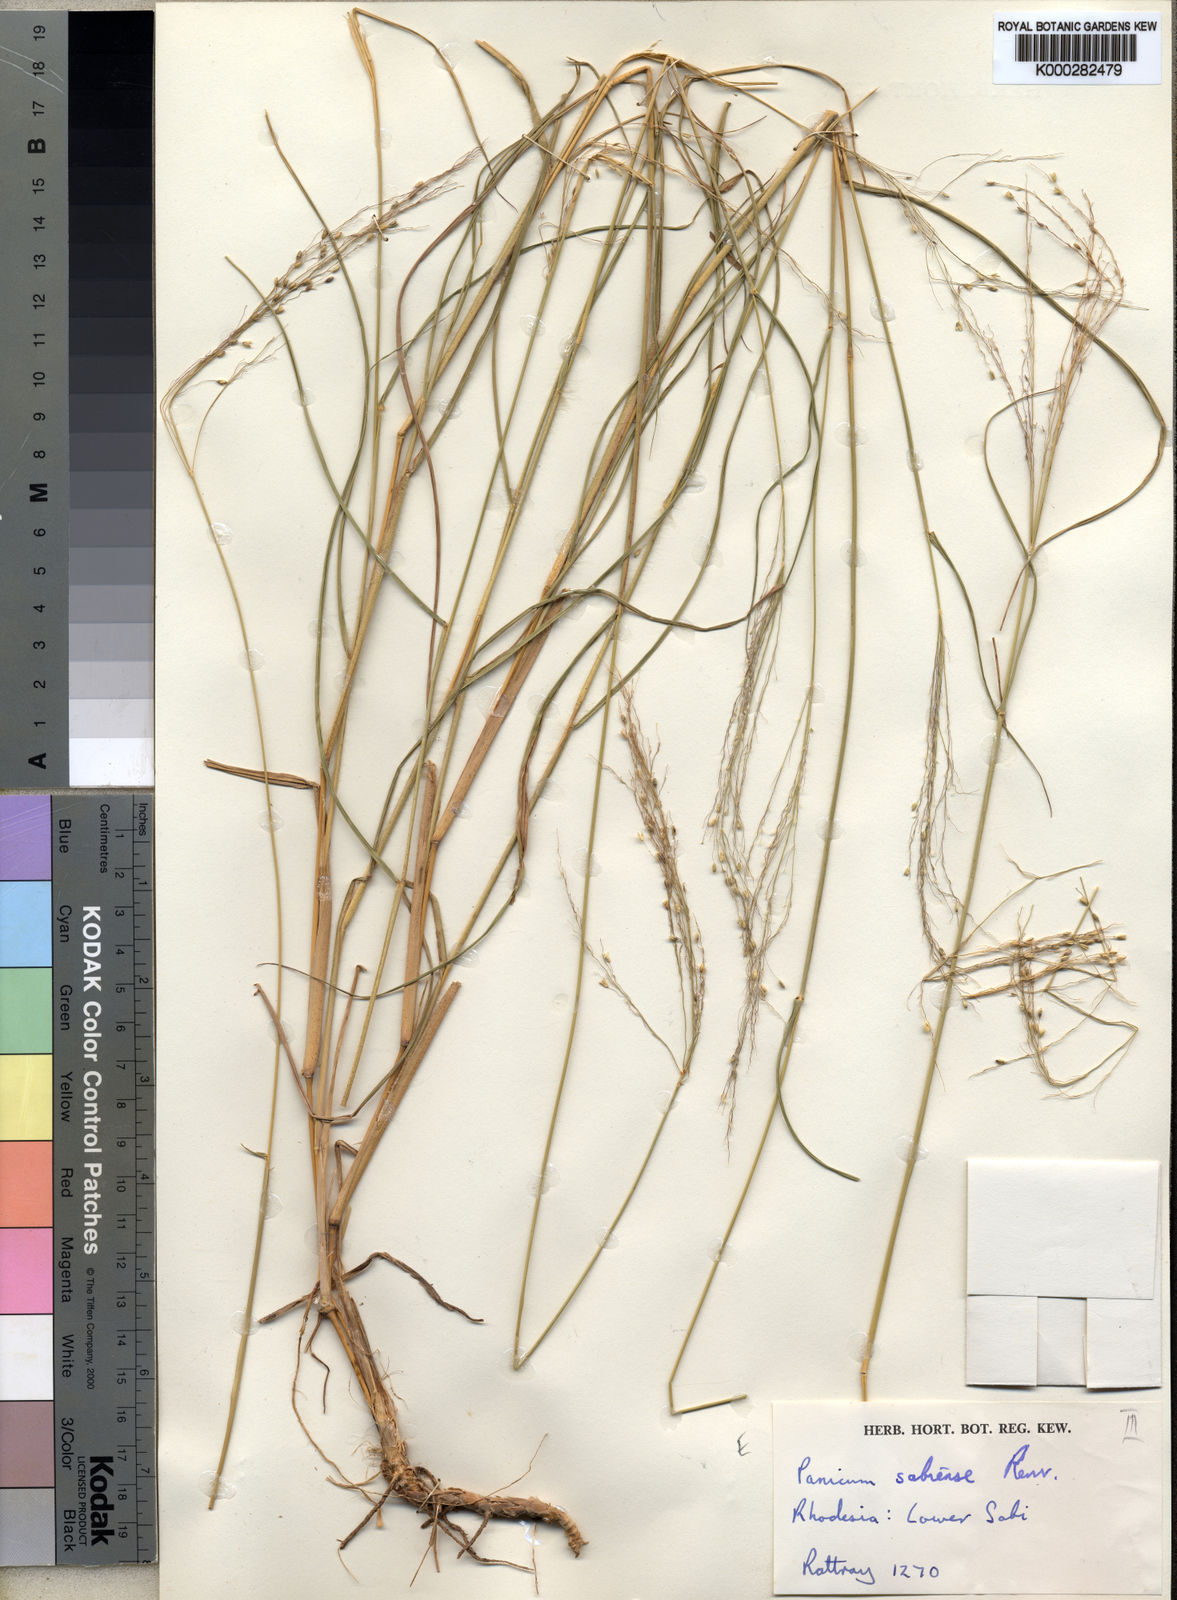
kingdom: Plantae
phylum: Tracheophyta
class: Liliopsida
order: Poales
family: Poaceae
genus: Panicum
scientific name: Panicum trichoides
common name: Tickle grass
